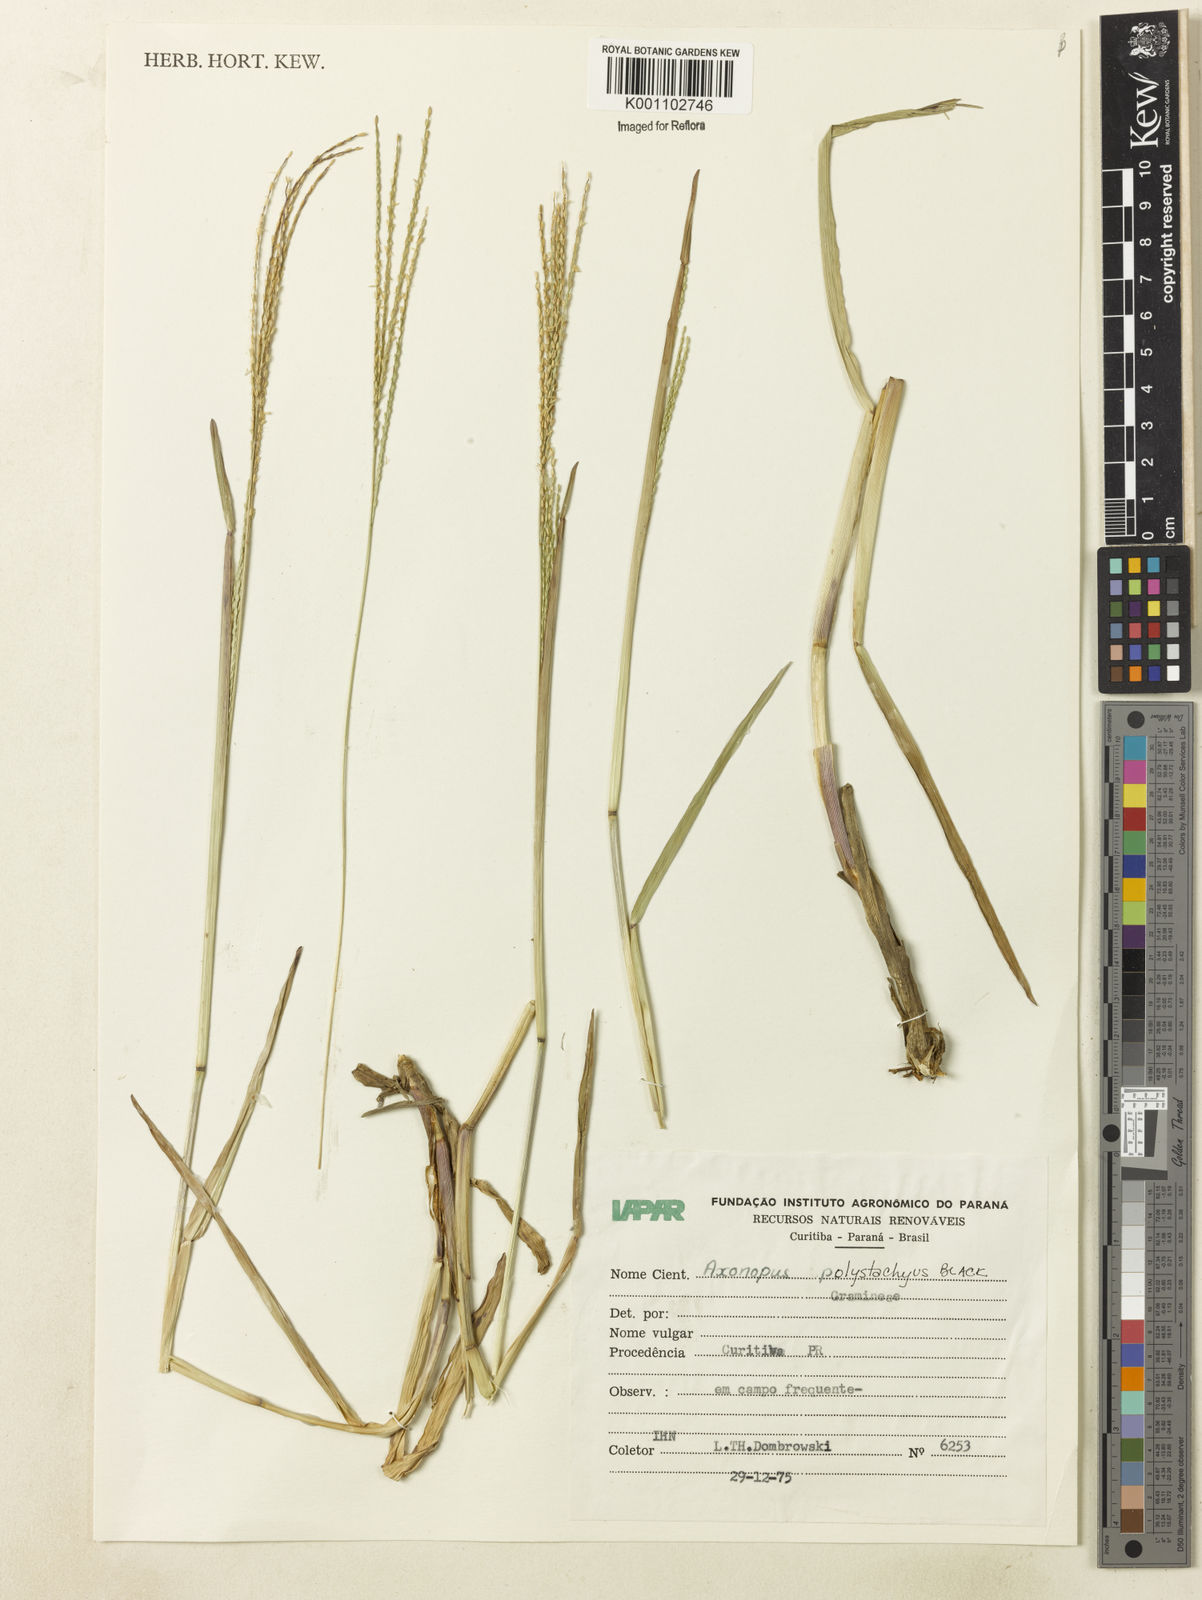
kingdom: Plantae
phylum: Tracheophyta
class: Liliopsida
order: Poales
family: Poaceae
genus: Axonopus
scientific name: Axonopus polystachyus
